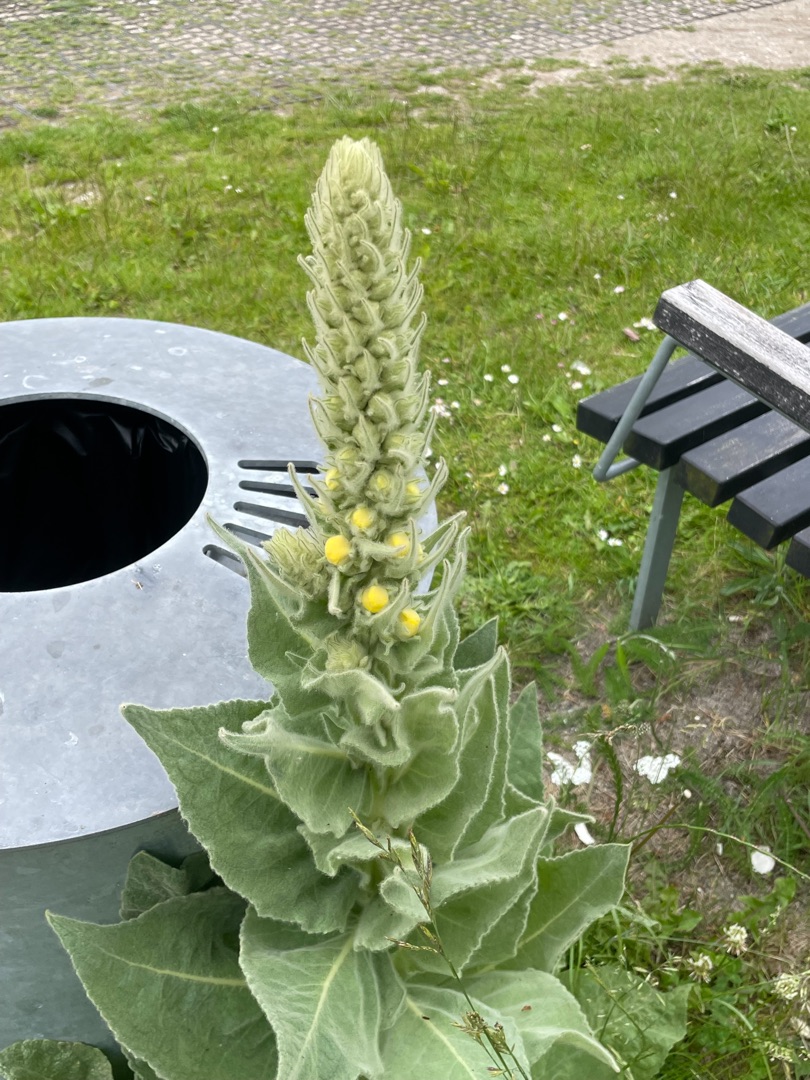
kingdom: Plantae
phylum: Tracheophyta
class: Magnoliopsida
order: Lamiales
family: Scrophulariaceae
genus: Verbascum
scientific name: Verbascum densiflorum
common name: Uldbladet kongelys
